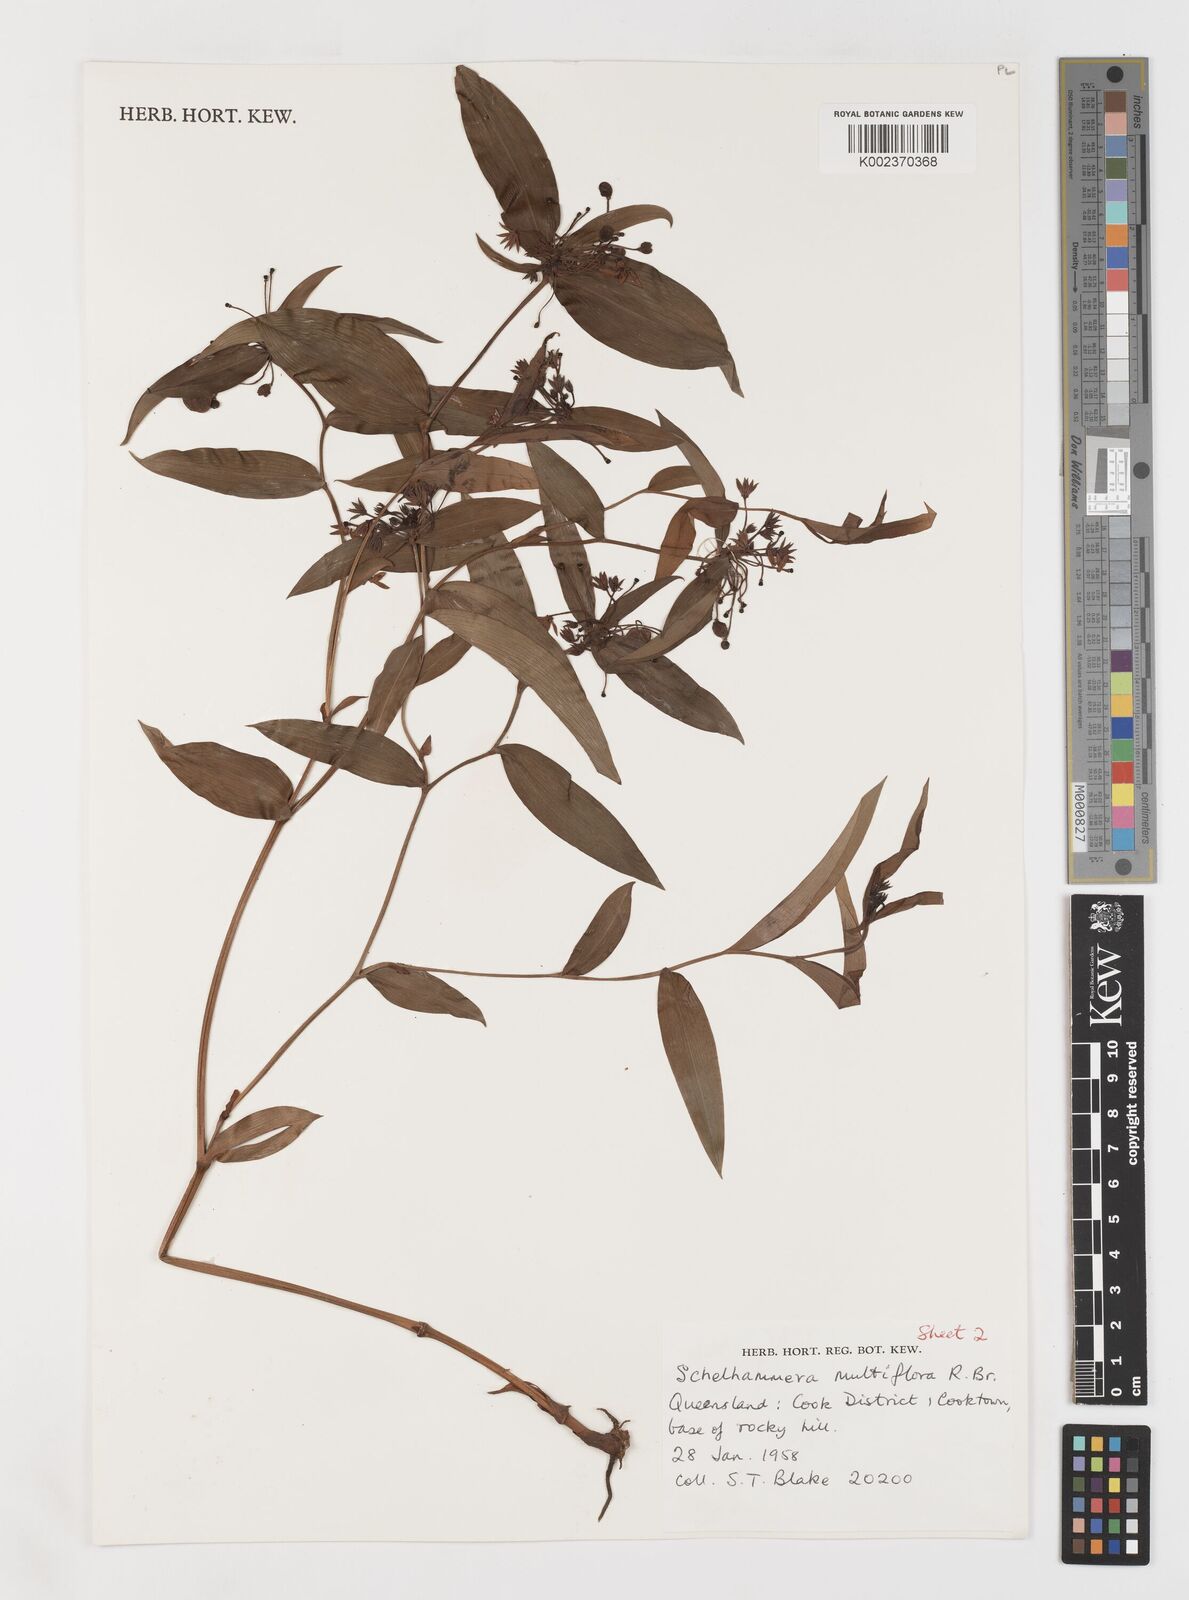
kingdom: Plantae
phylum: Tracheophyta
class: Liliopsida
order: Liliales
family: Colchicaceae
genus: Schelhammera
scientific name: Schelhammera multiflora
